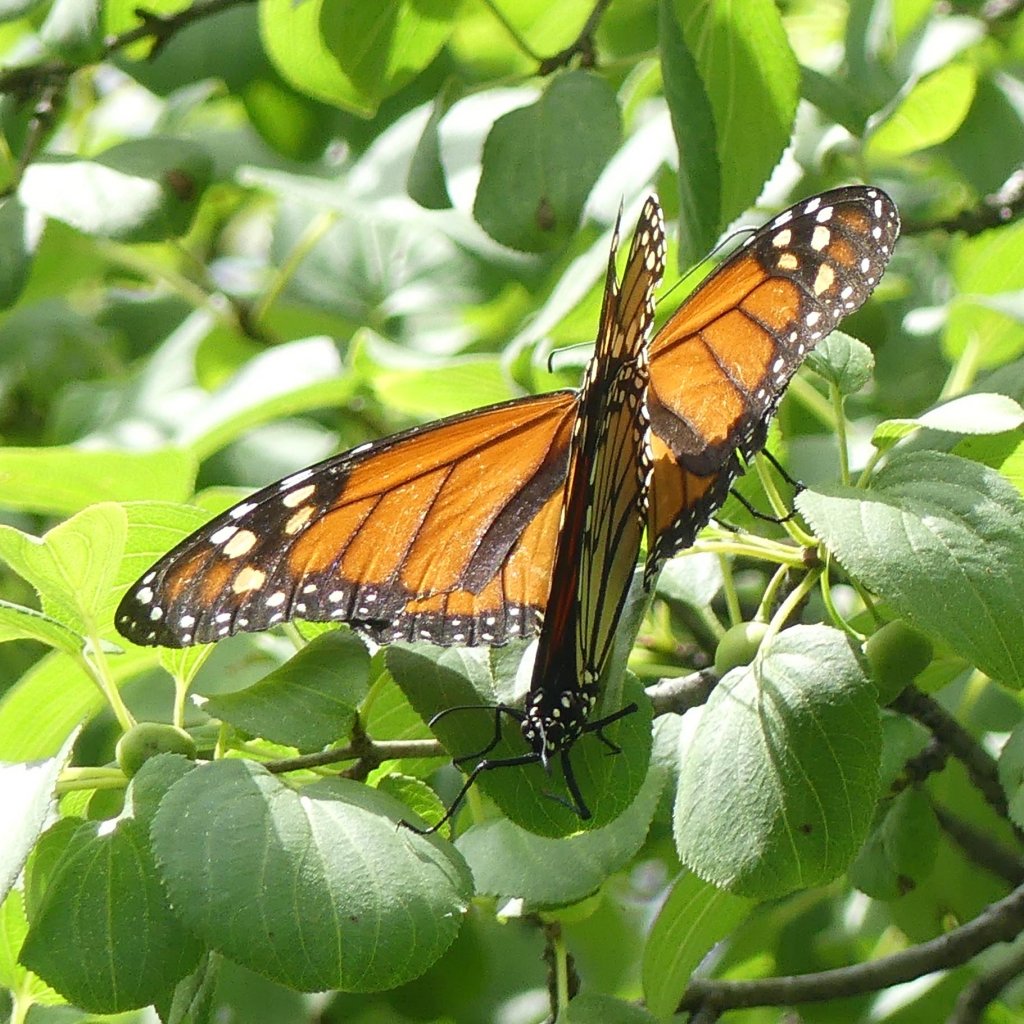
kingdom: Animalia
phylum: Arthropoda
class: Insecta
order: Lepidoptera
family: Nymphalidae
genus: Danaus
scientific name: Danaus plexippus
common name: Monarch
